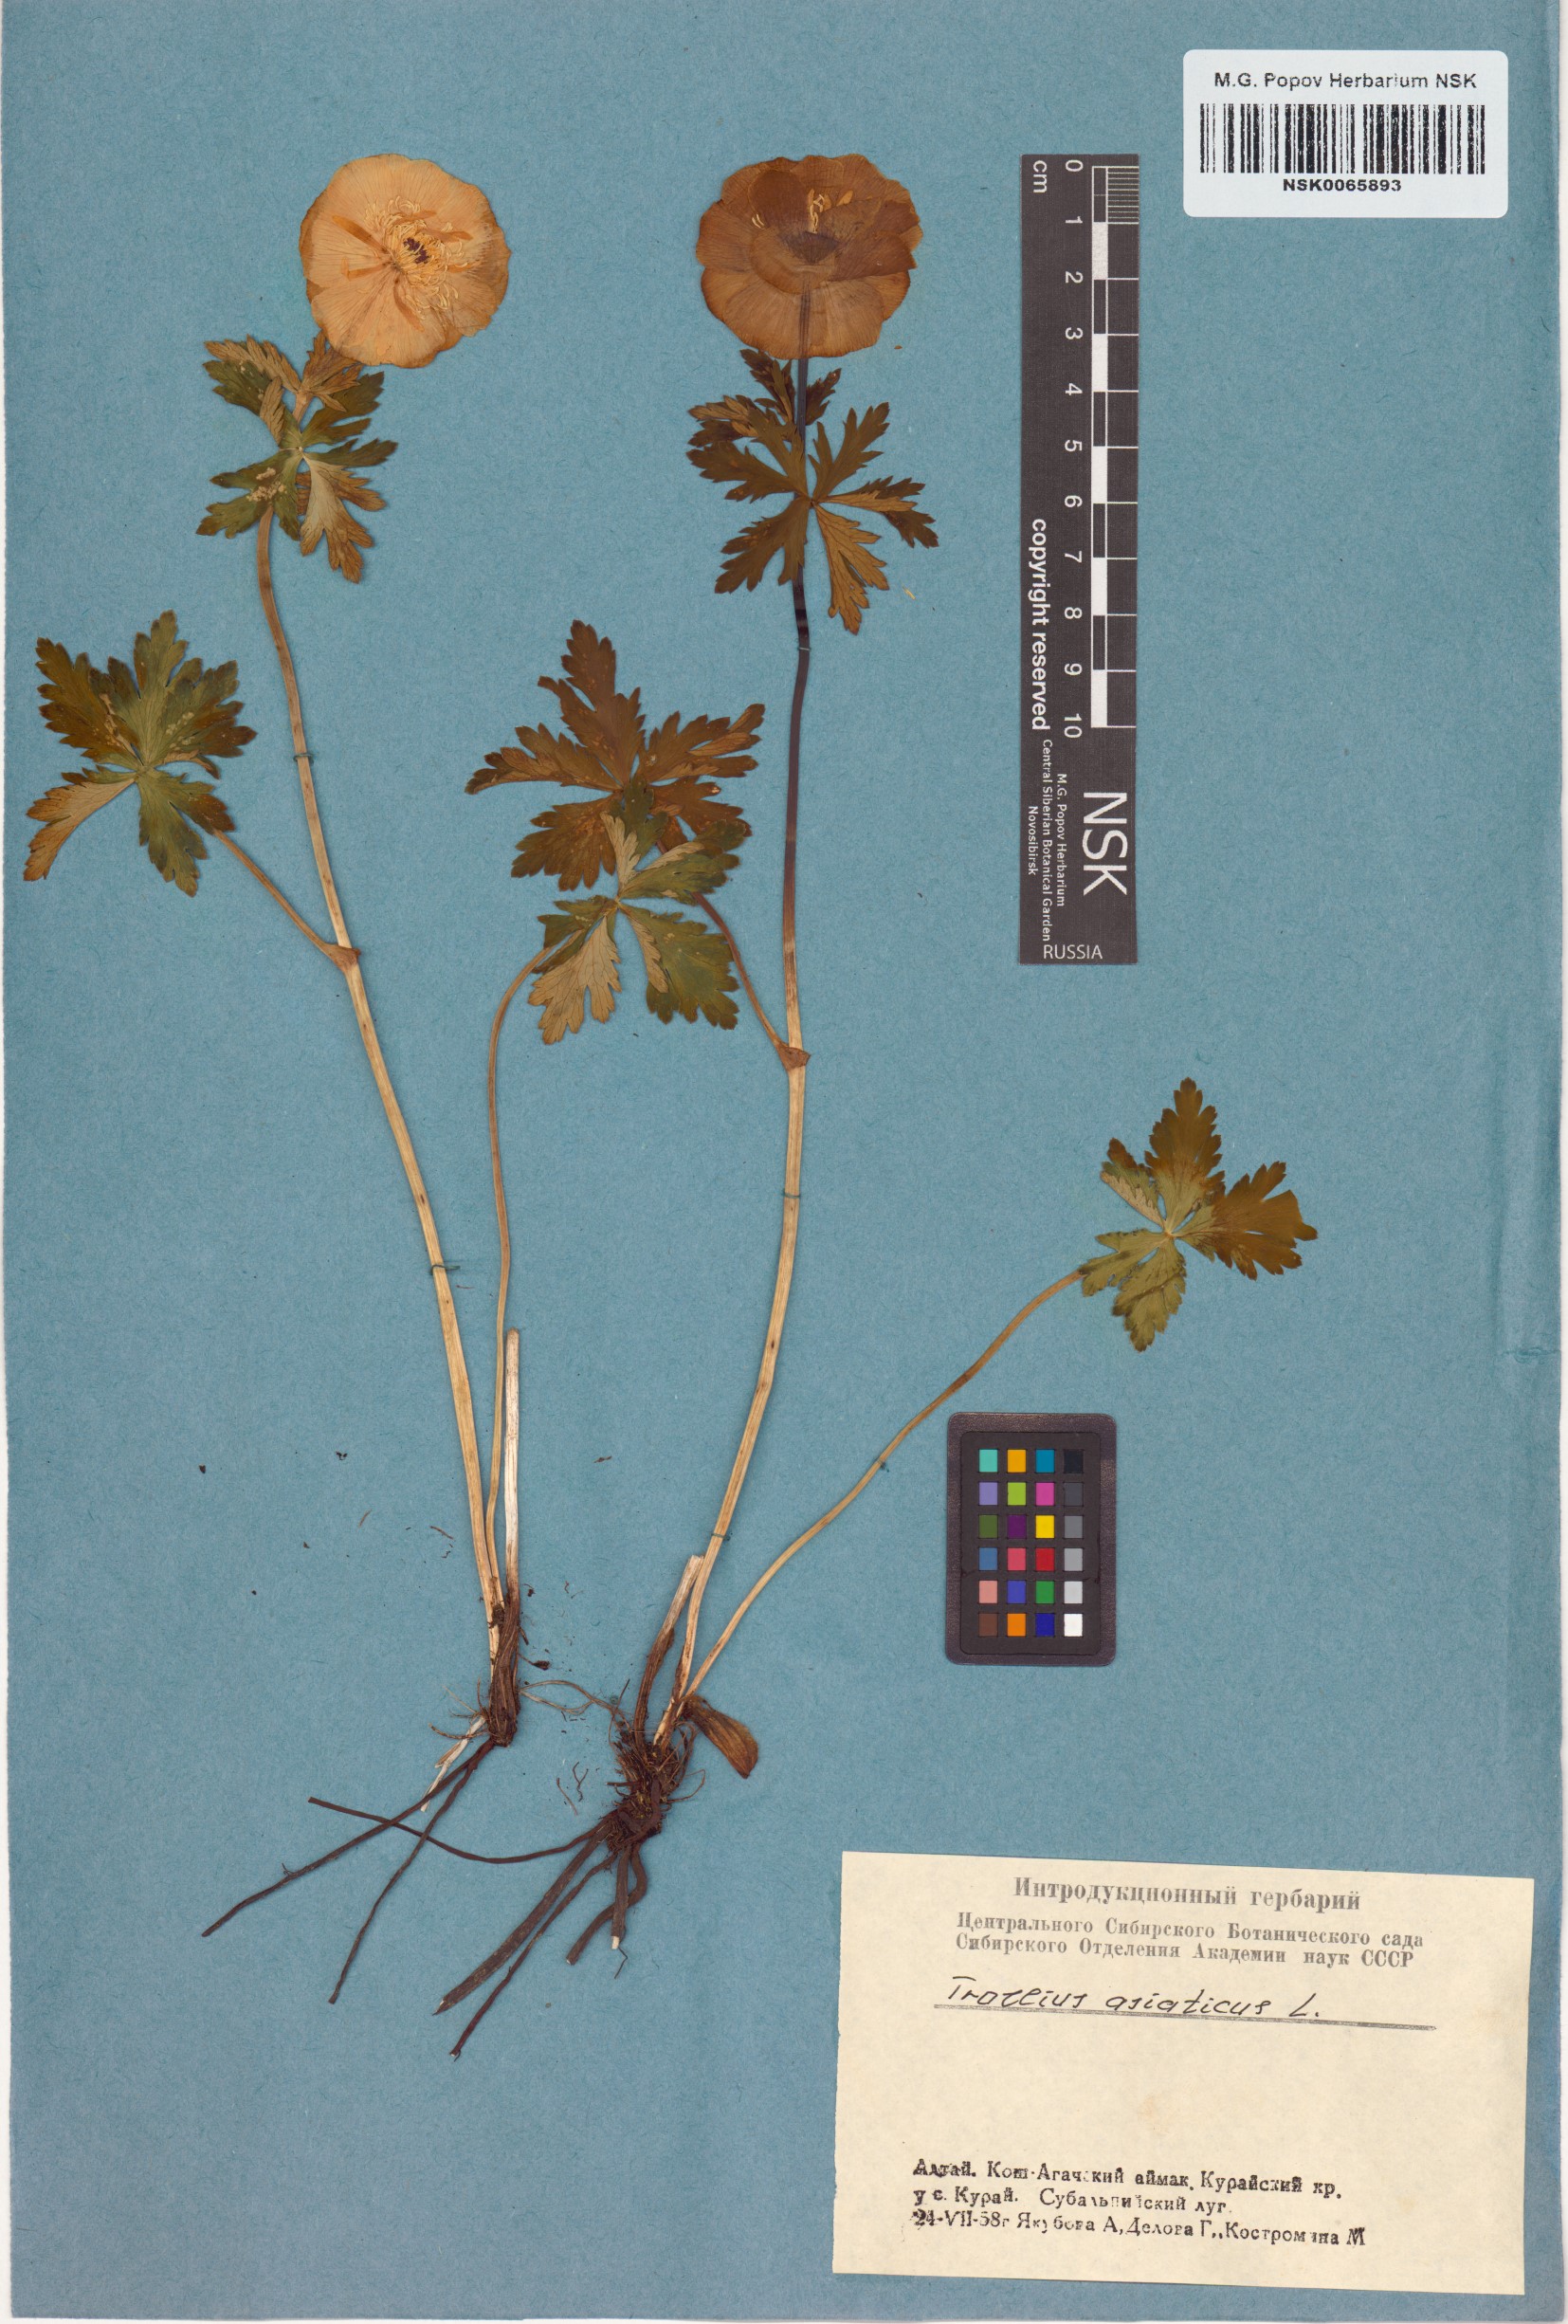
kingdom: Plantae
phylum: Tracheophyta
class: Magnoliopsida
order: Ranunculales
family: Ranunculaceae
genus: Trollius
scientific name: Trollius asiaticus
